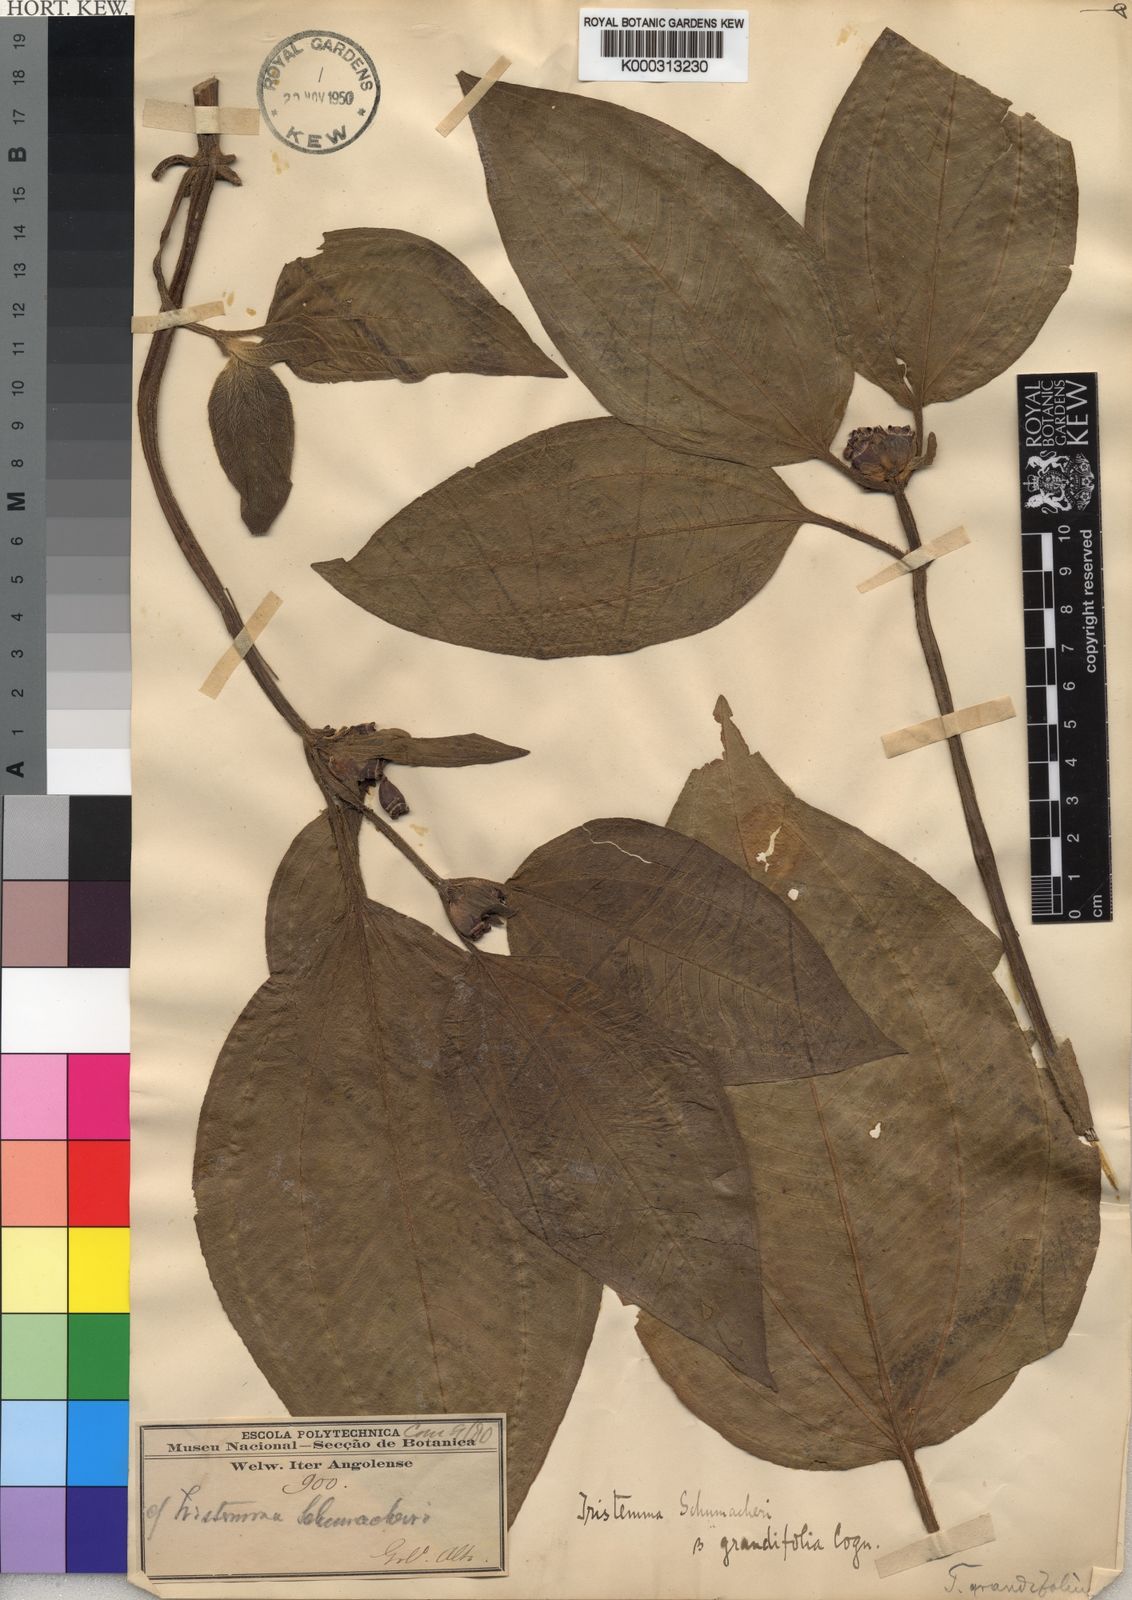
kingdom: Plantae
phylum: Tracheophyta
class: Magnoliopsida
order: Myrtales
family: Melastomataceae
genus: Tristemma
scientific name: Tristemma mauritianum
